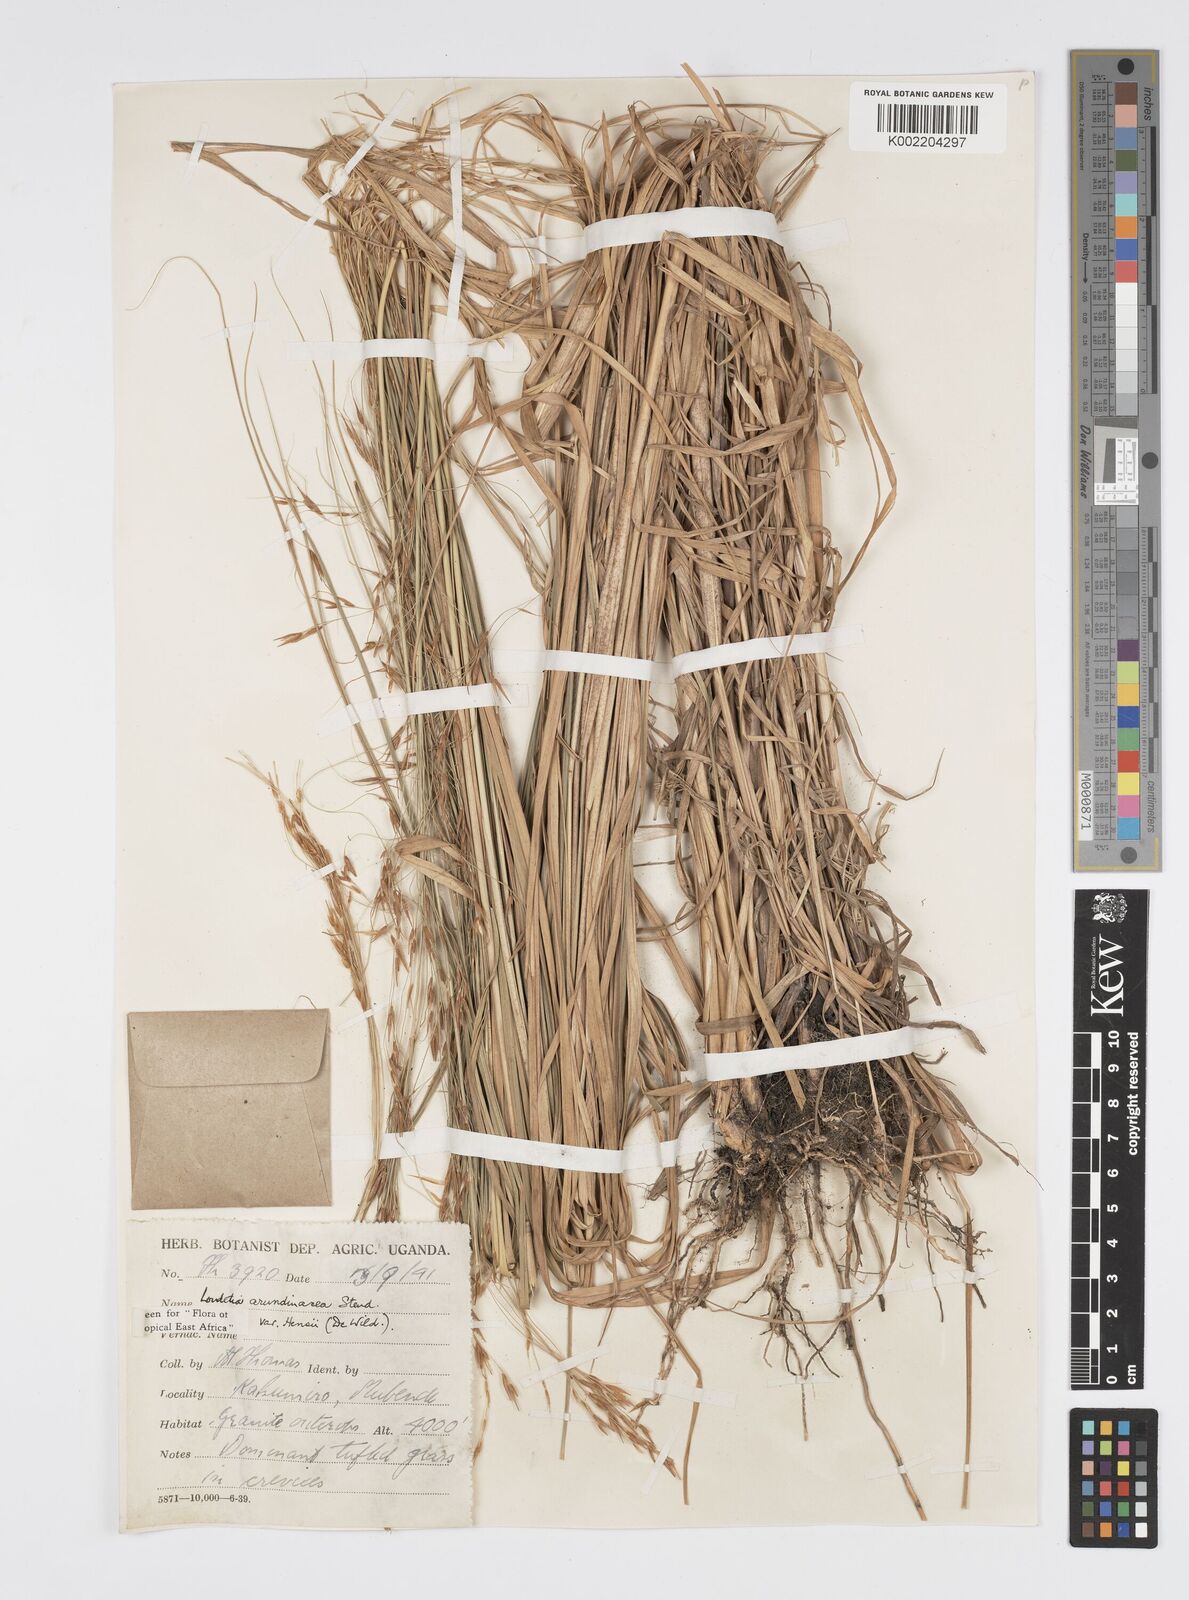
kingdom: Plantae
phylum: Tracheophyta
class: Liliopsida
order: Poales
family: Poaceae
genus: Loudetia
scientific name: Loudetia arundinacea
